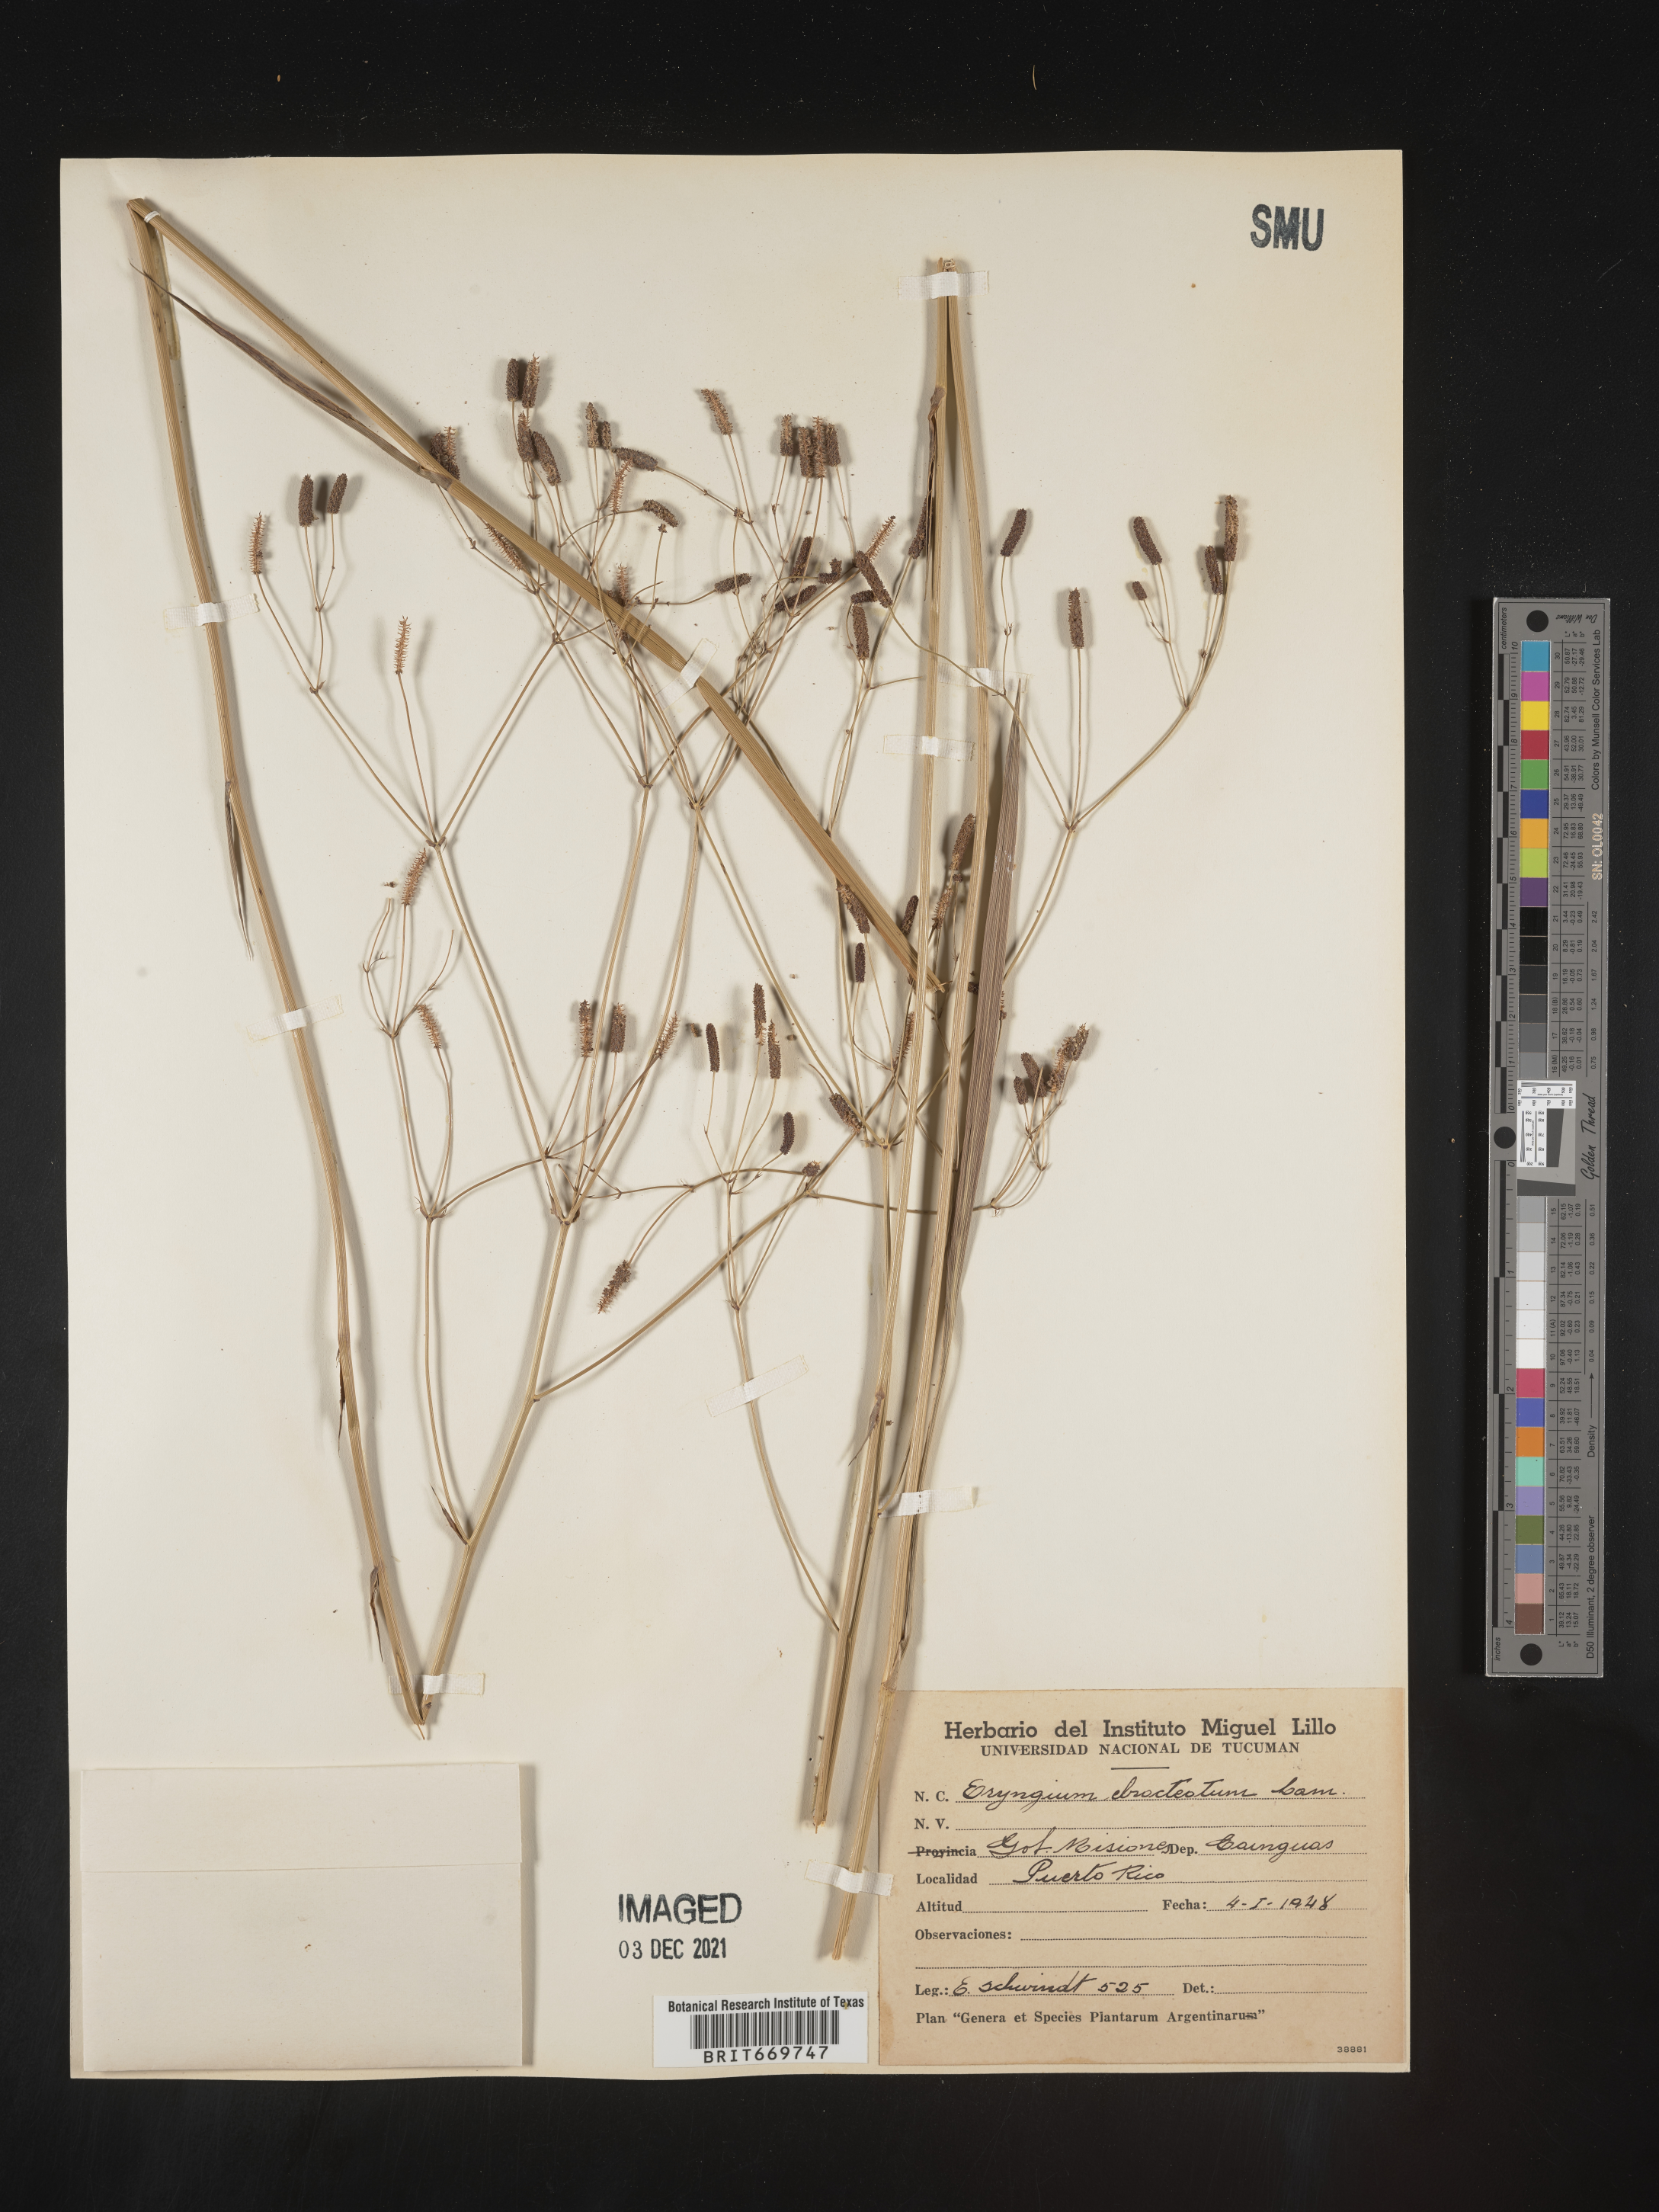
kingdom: Plantae
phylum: Tracheophyta
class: Magnoliopsida
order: Apiales
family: Apiaceae
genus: Eryngium
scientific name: Eryngium
